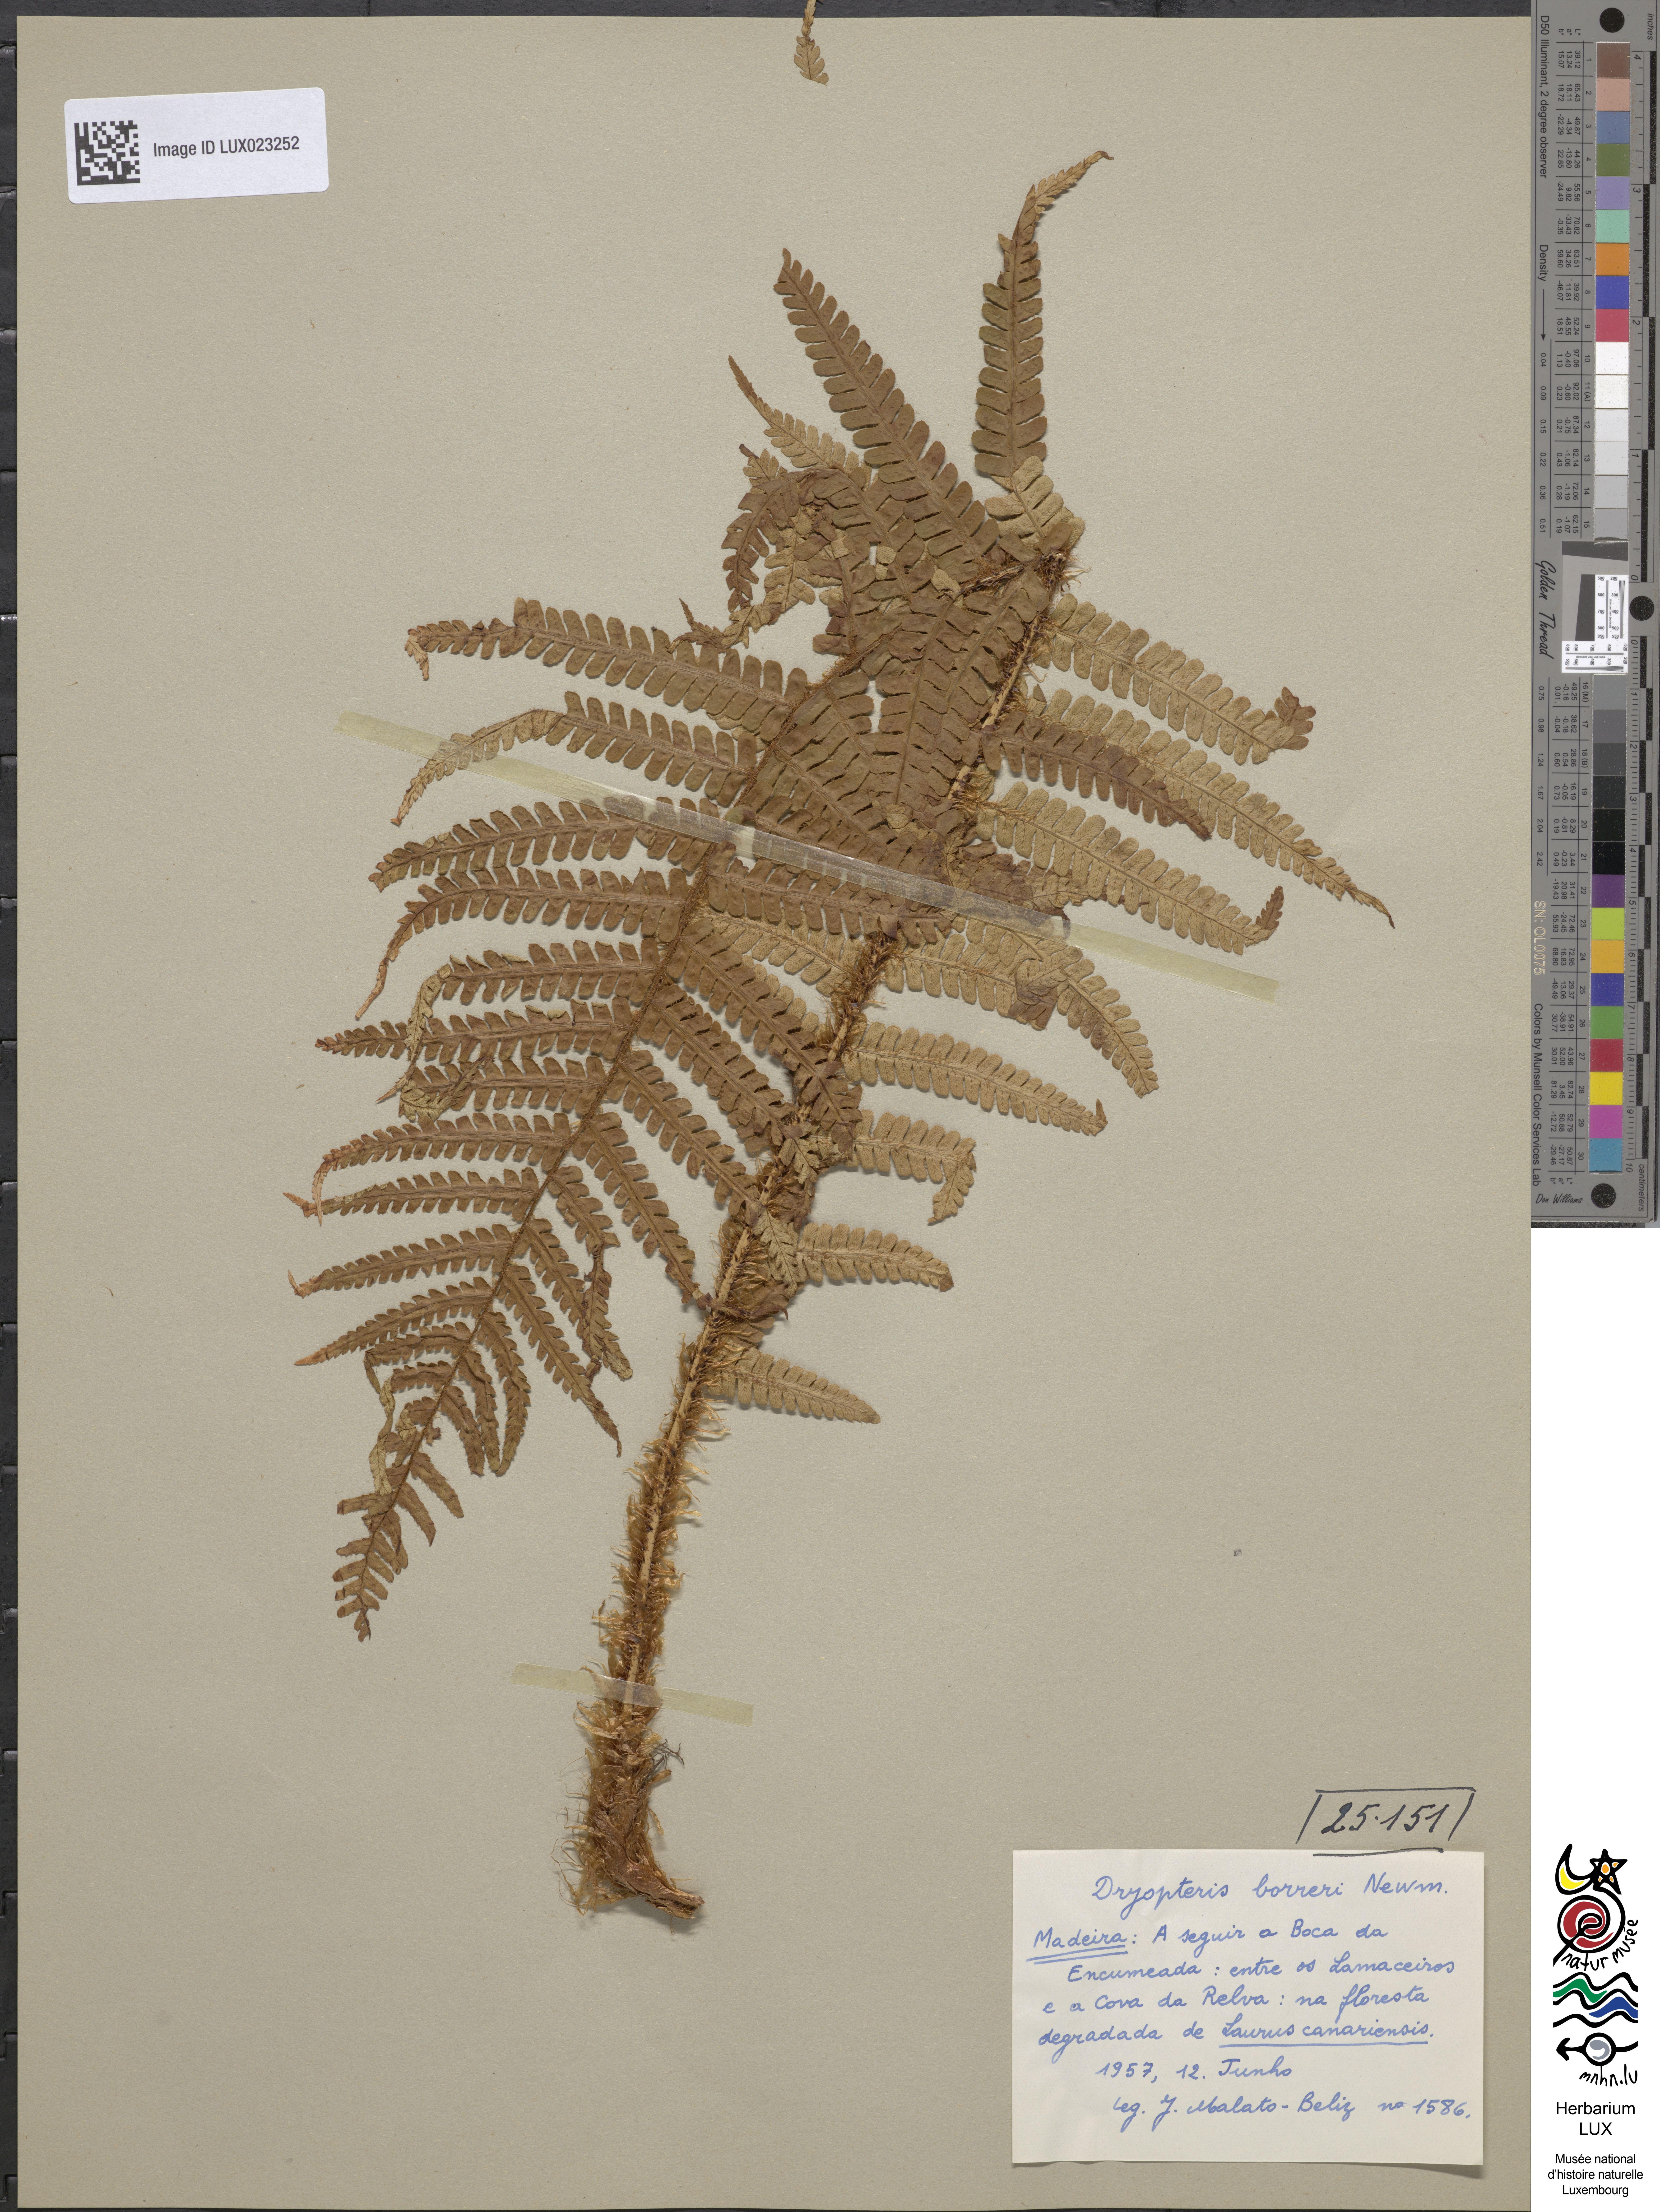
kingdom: Plantae
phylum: Tracheophyta
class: Polypodiopsida
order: Polypodiales
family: Dryopteridaceae
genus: Dryopteris
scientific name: Dryopteris
